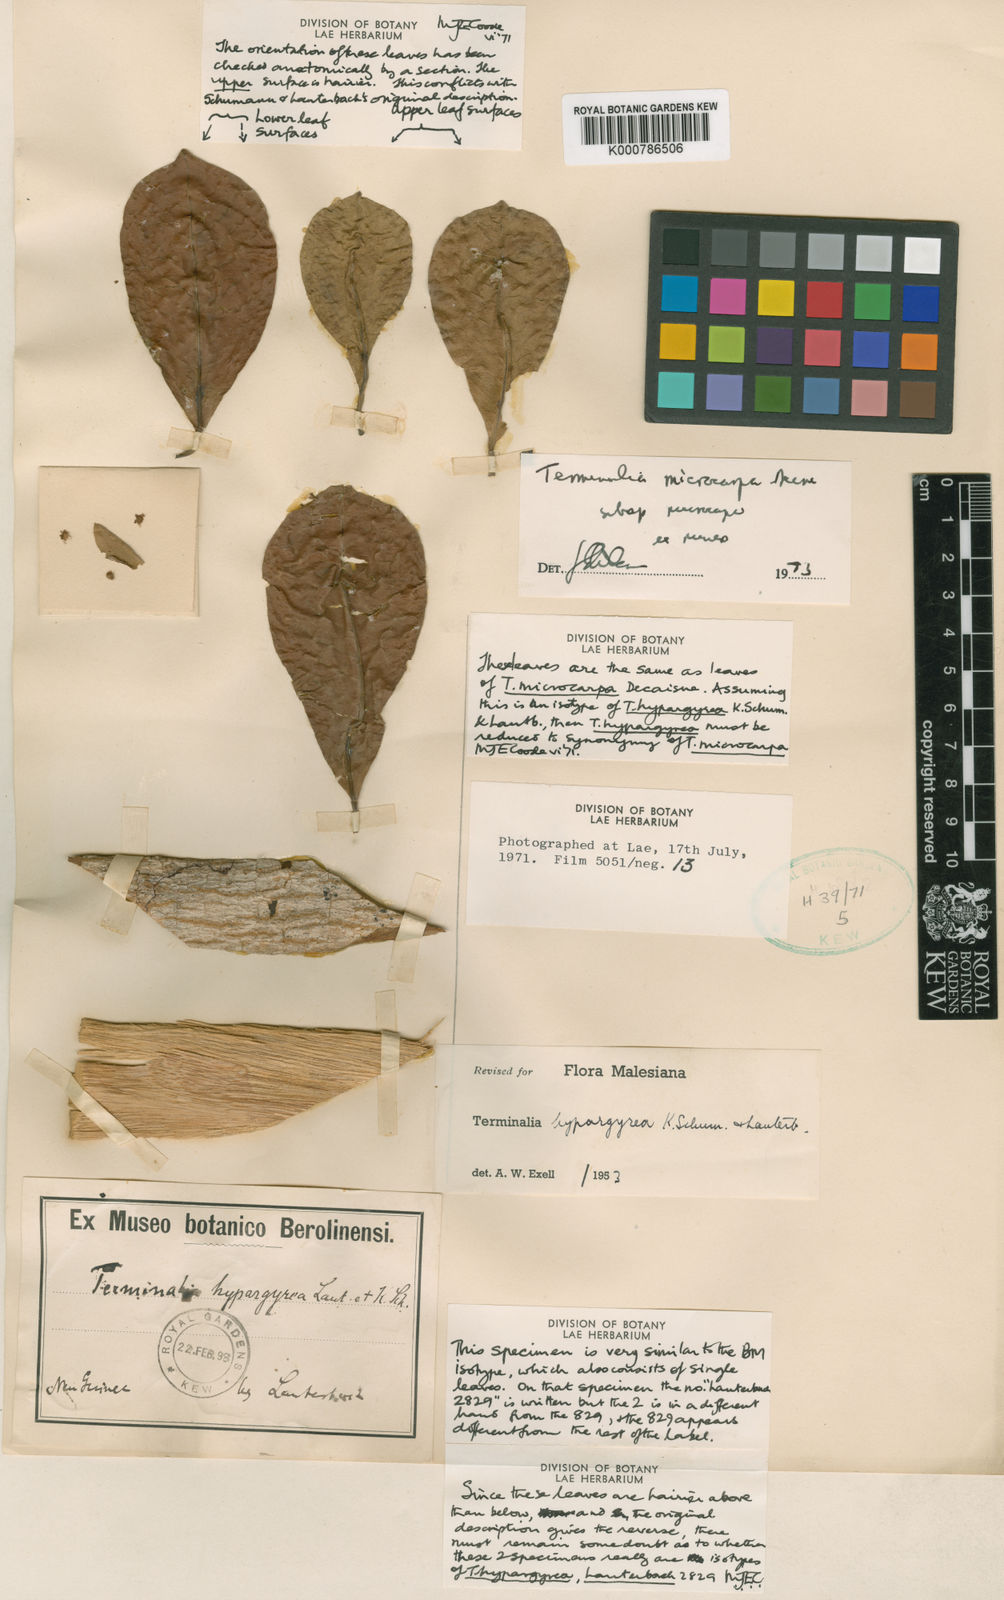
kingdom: Plantae
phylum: Tracheophyta
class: Magnoliopsida
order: Myrtales
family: Combretaceae
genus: Terminalia
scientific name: Terminalia microcarpa
